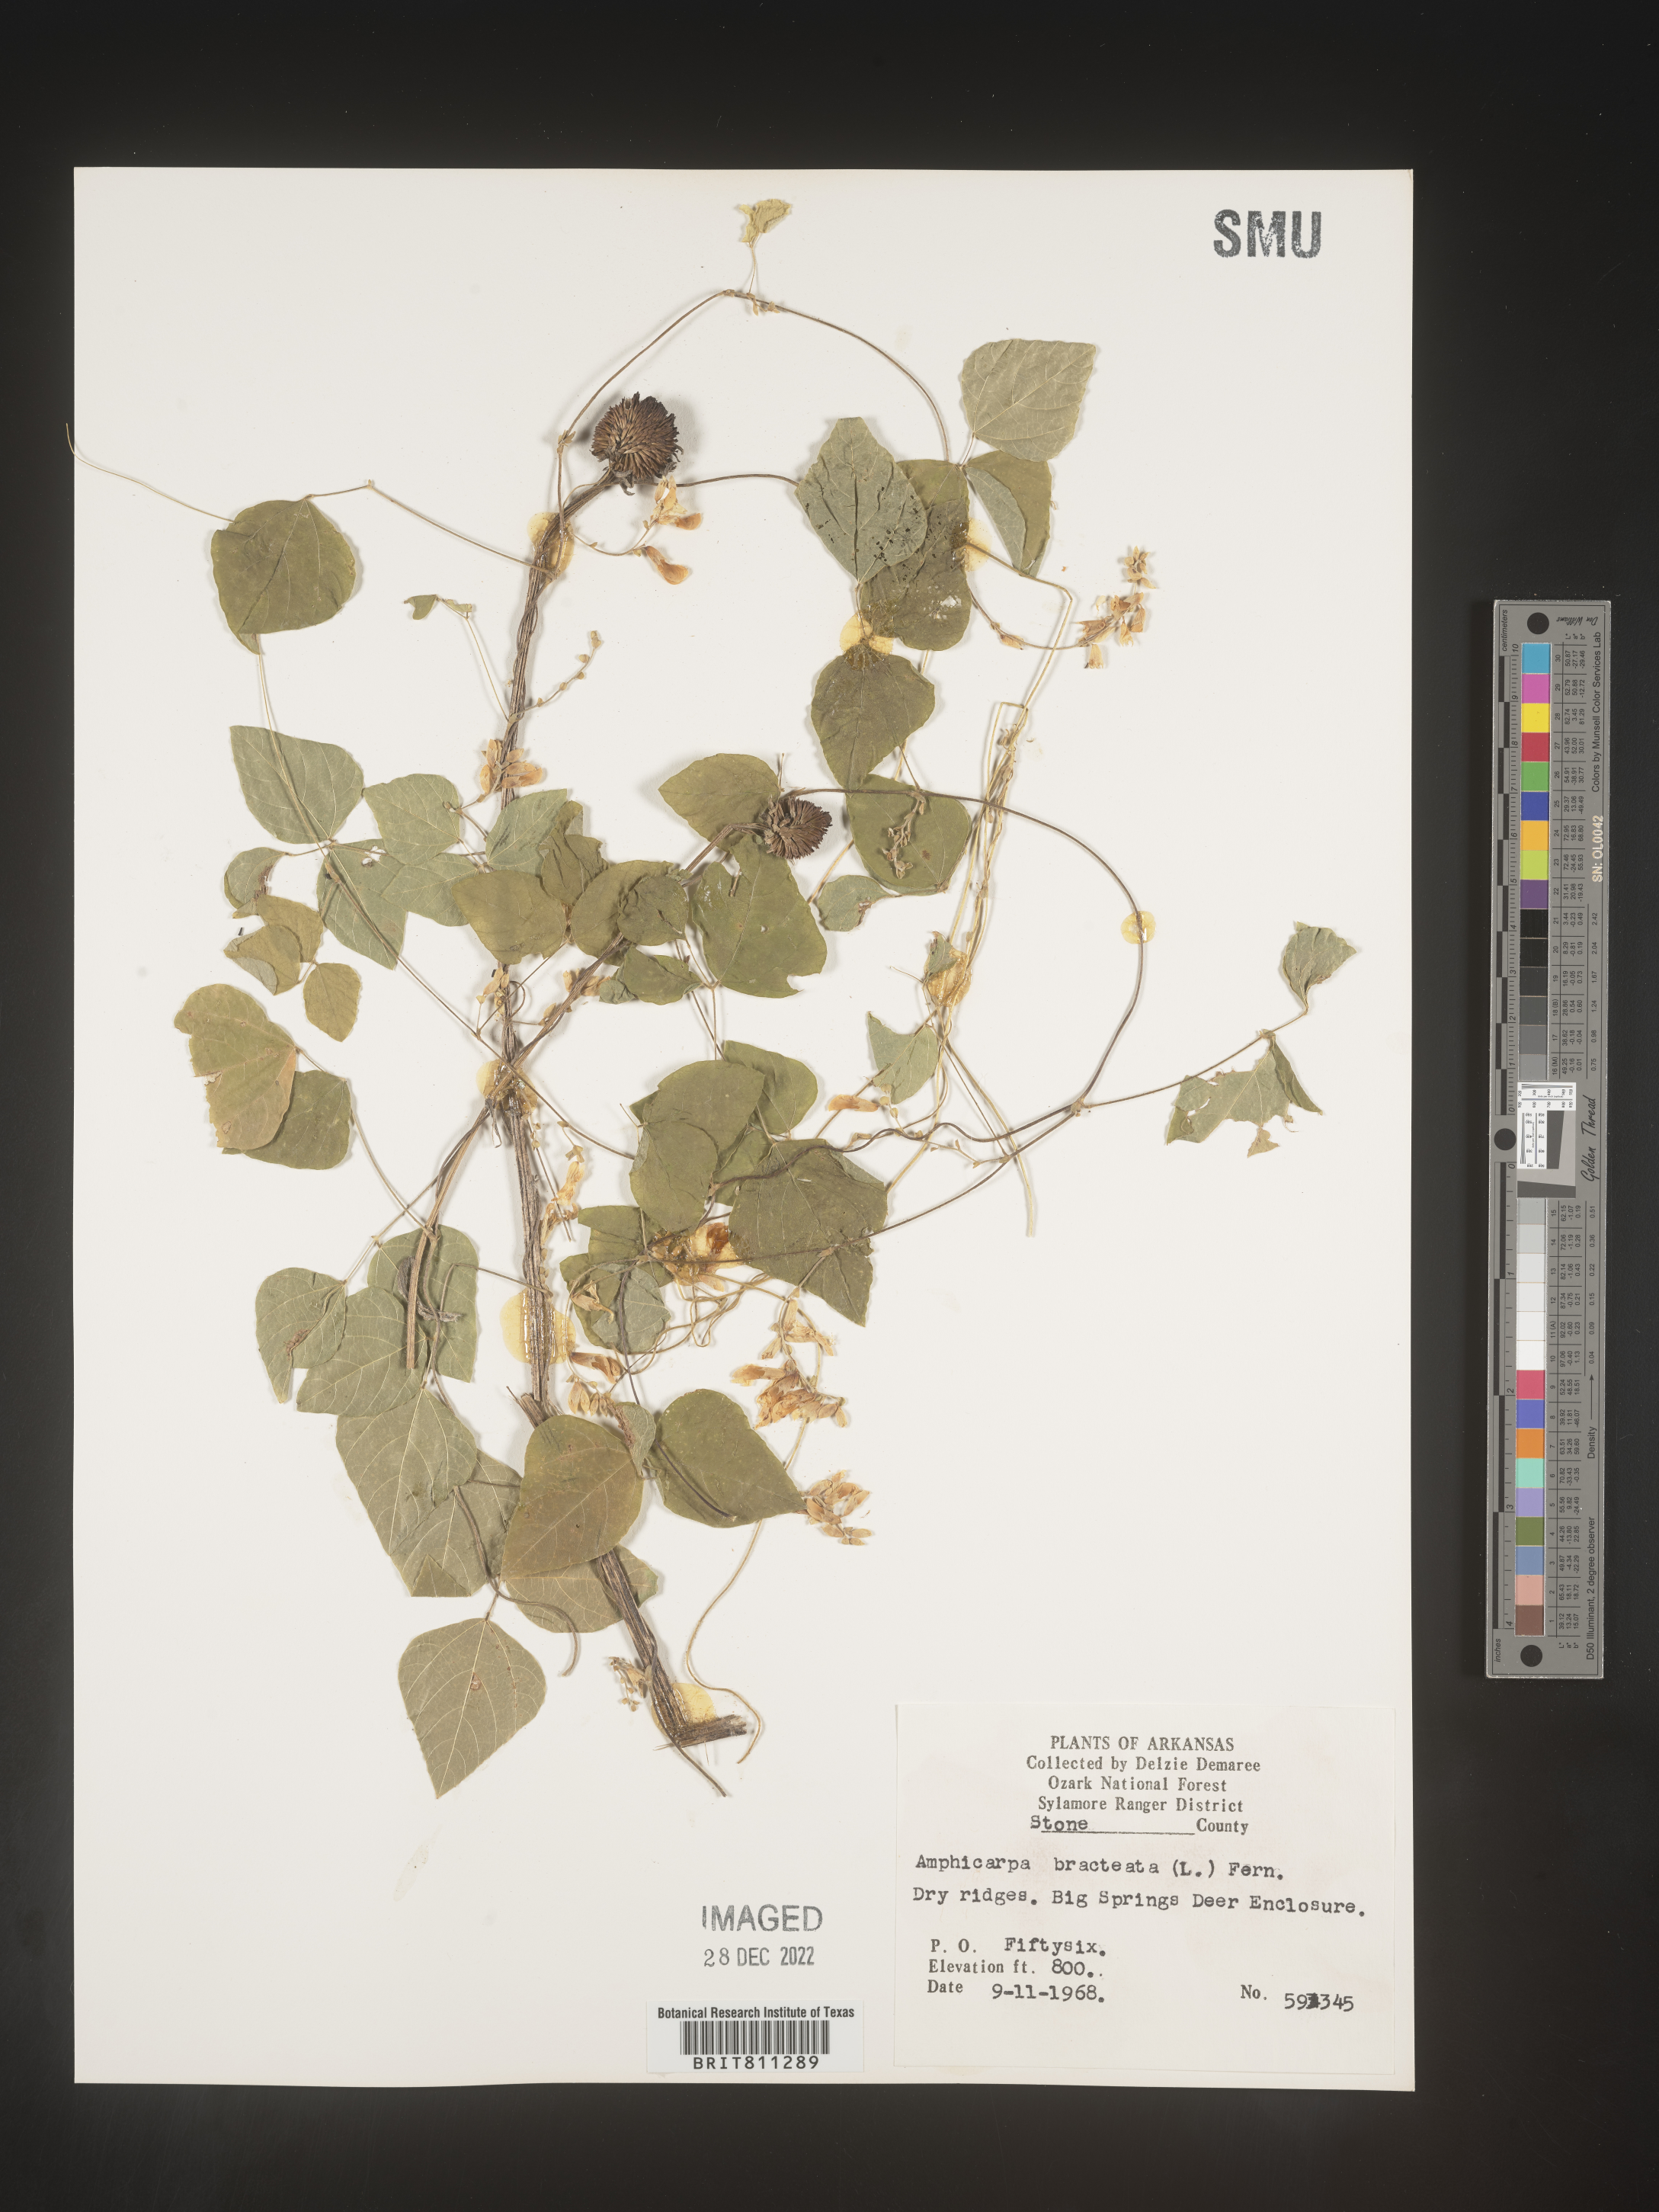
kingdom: Plantae
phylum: Tracheophyta
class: Magnoliopsida
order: Fabales
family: Fabaceae
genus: Amphicarpaea
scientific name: Amphicarpaea bracteata
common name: American hog peanut
